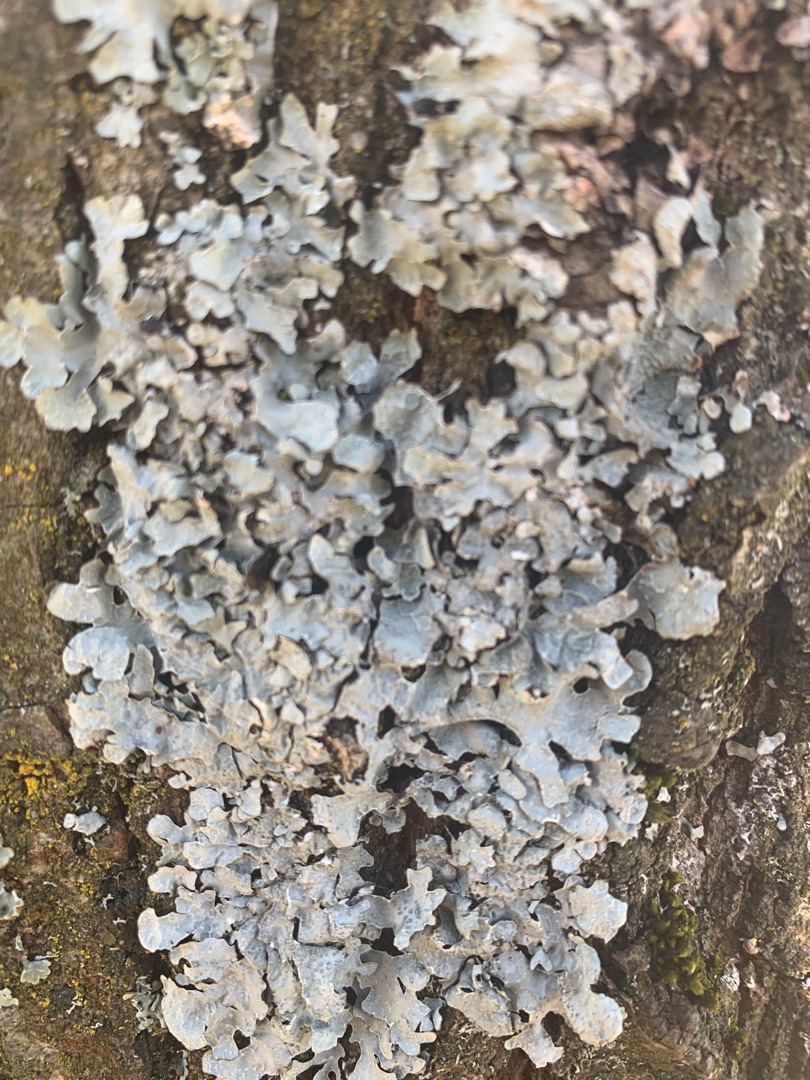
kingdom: Fungi
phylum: Ascomycota
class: Lecanoromycetes
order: Lecanorales
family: Parmeliaceae
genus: Parmelia
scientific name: Parmelia sulcata
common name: Rynket skållav
